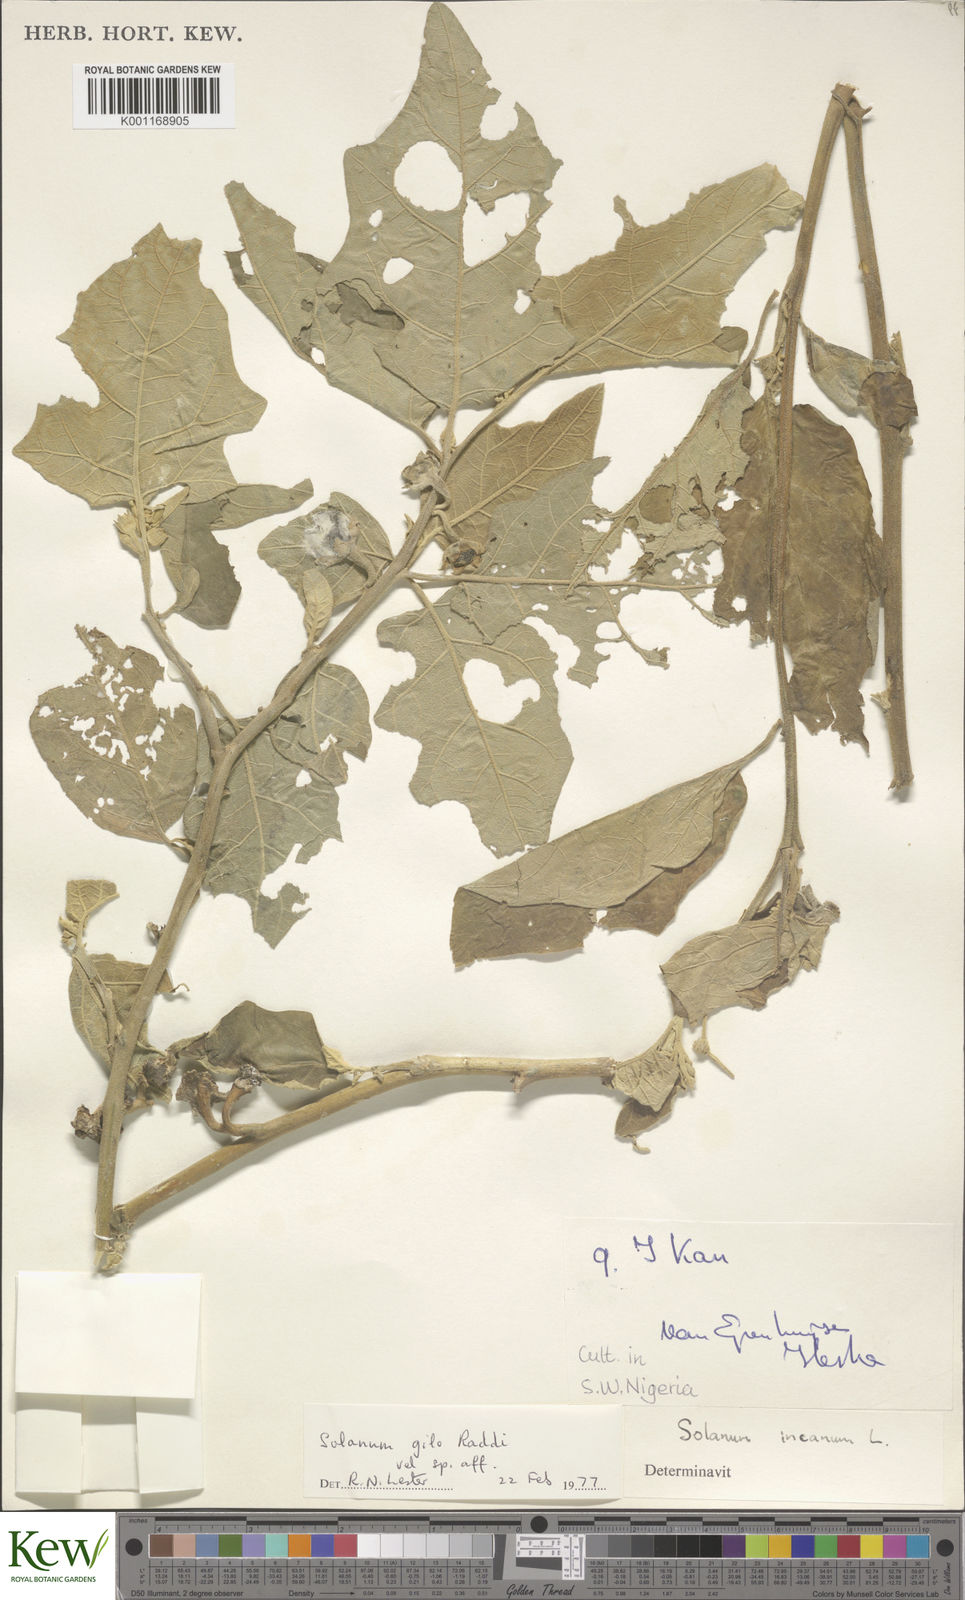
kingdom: Plantae
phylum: Tracheophyta
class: Magnoliopsida
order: Solanales
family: Solanaceae
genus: Solanum
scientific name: Solanum aethiopicum
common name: Gilo
